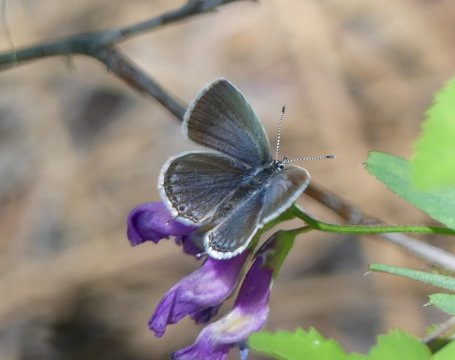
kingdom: Animalia
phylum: Arthropoda
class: Insecta
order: Lepidoptera
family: Lycaenidae
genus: Elkalyce
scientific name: Elkalyce amyntula
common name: Western Tailed-Blue
